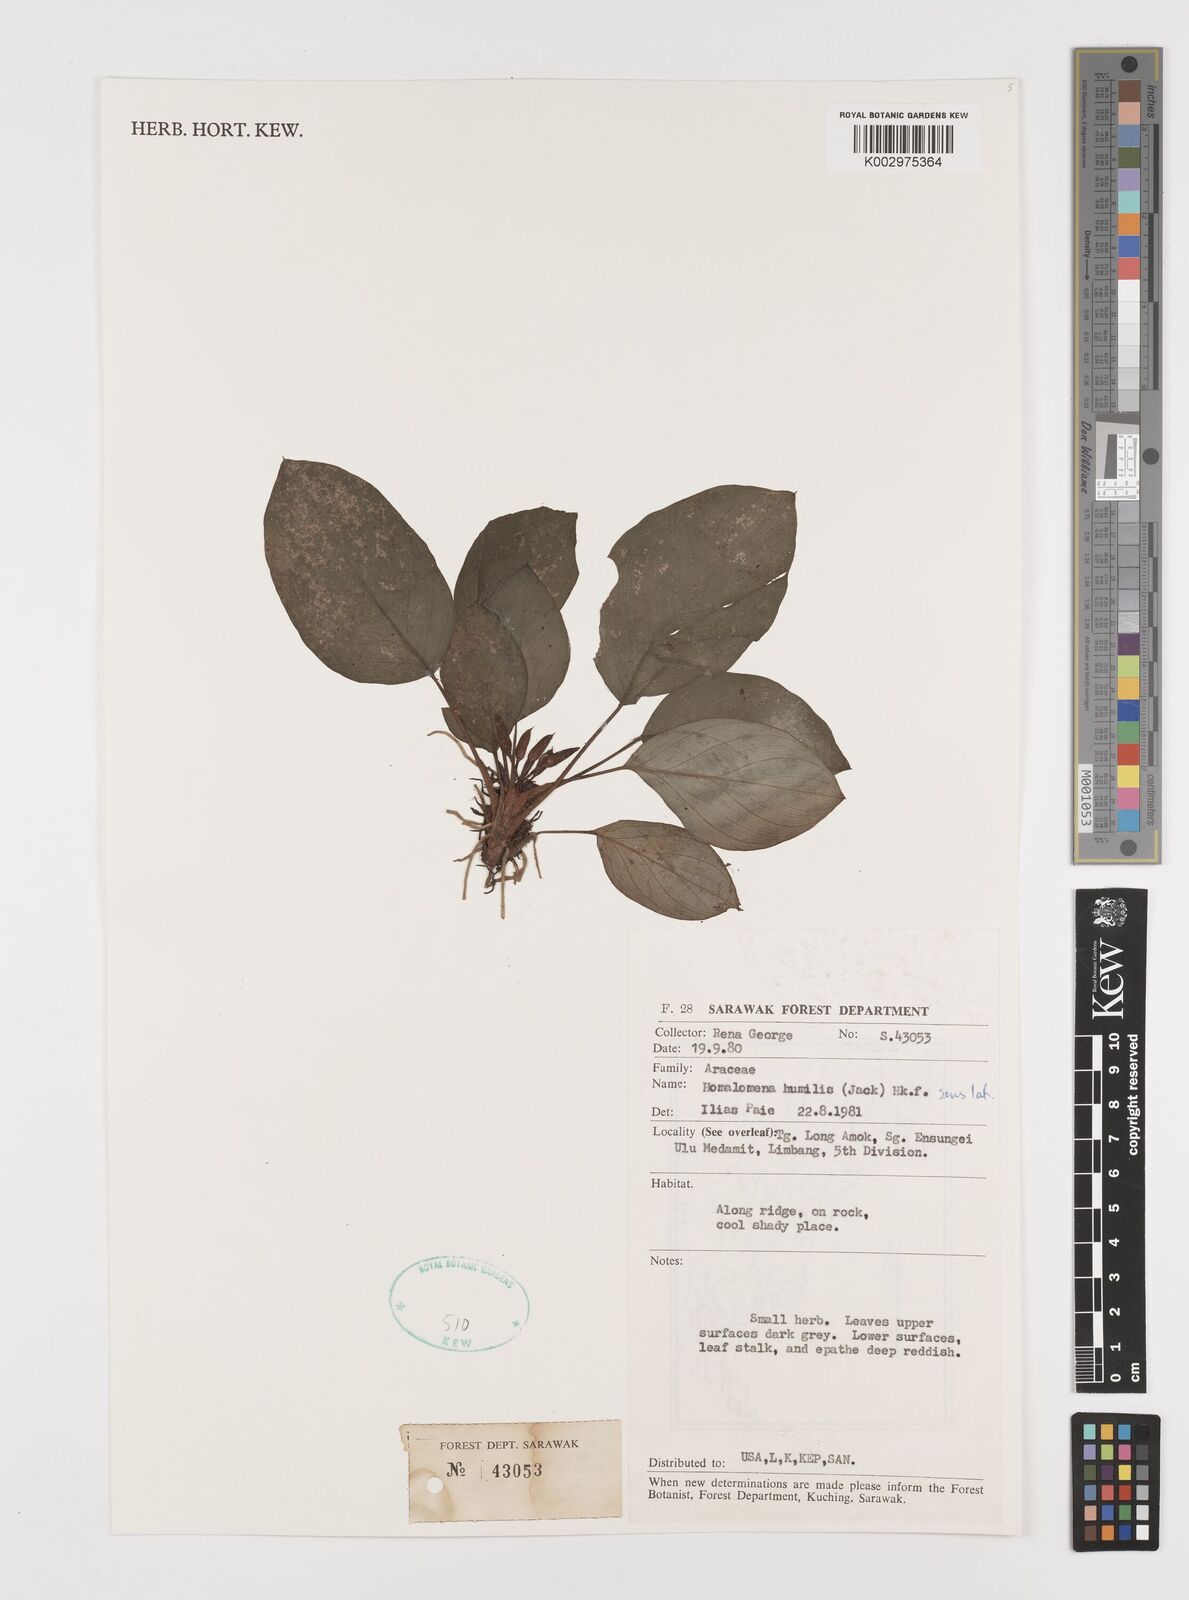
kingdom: Plantae
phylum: Tracheophyta
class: Liliopsida
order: Alismatales
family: Araceae
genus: Homalomena
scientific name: Homalomena humilis
